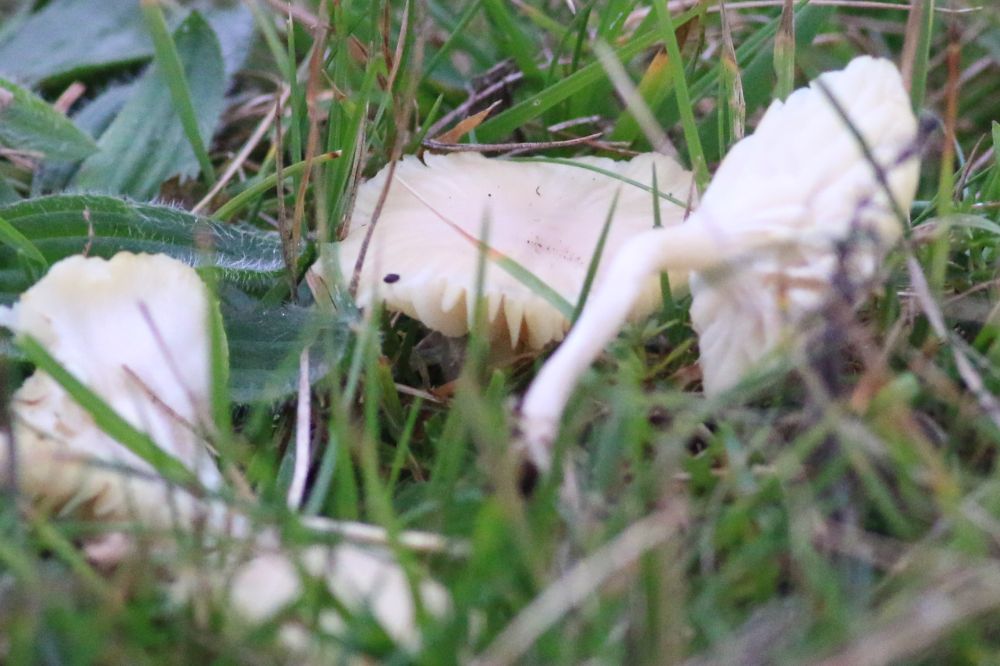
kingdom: Fungi
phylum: Basidiomycota
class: Agaricomycetes
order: Agaricales
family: Hygrophoraceae
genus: Cuphophyllus
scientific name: Cuphophyllus
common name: vokshat
